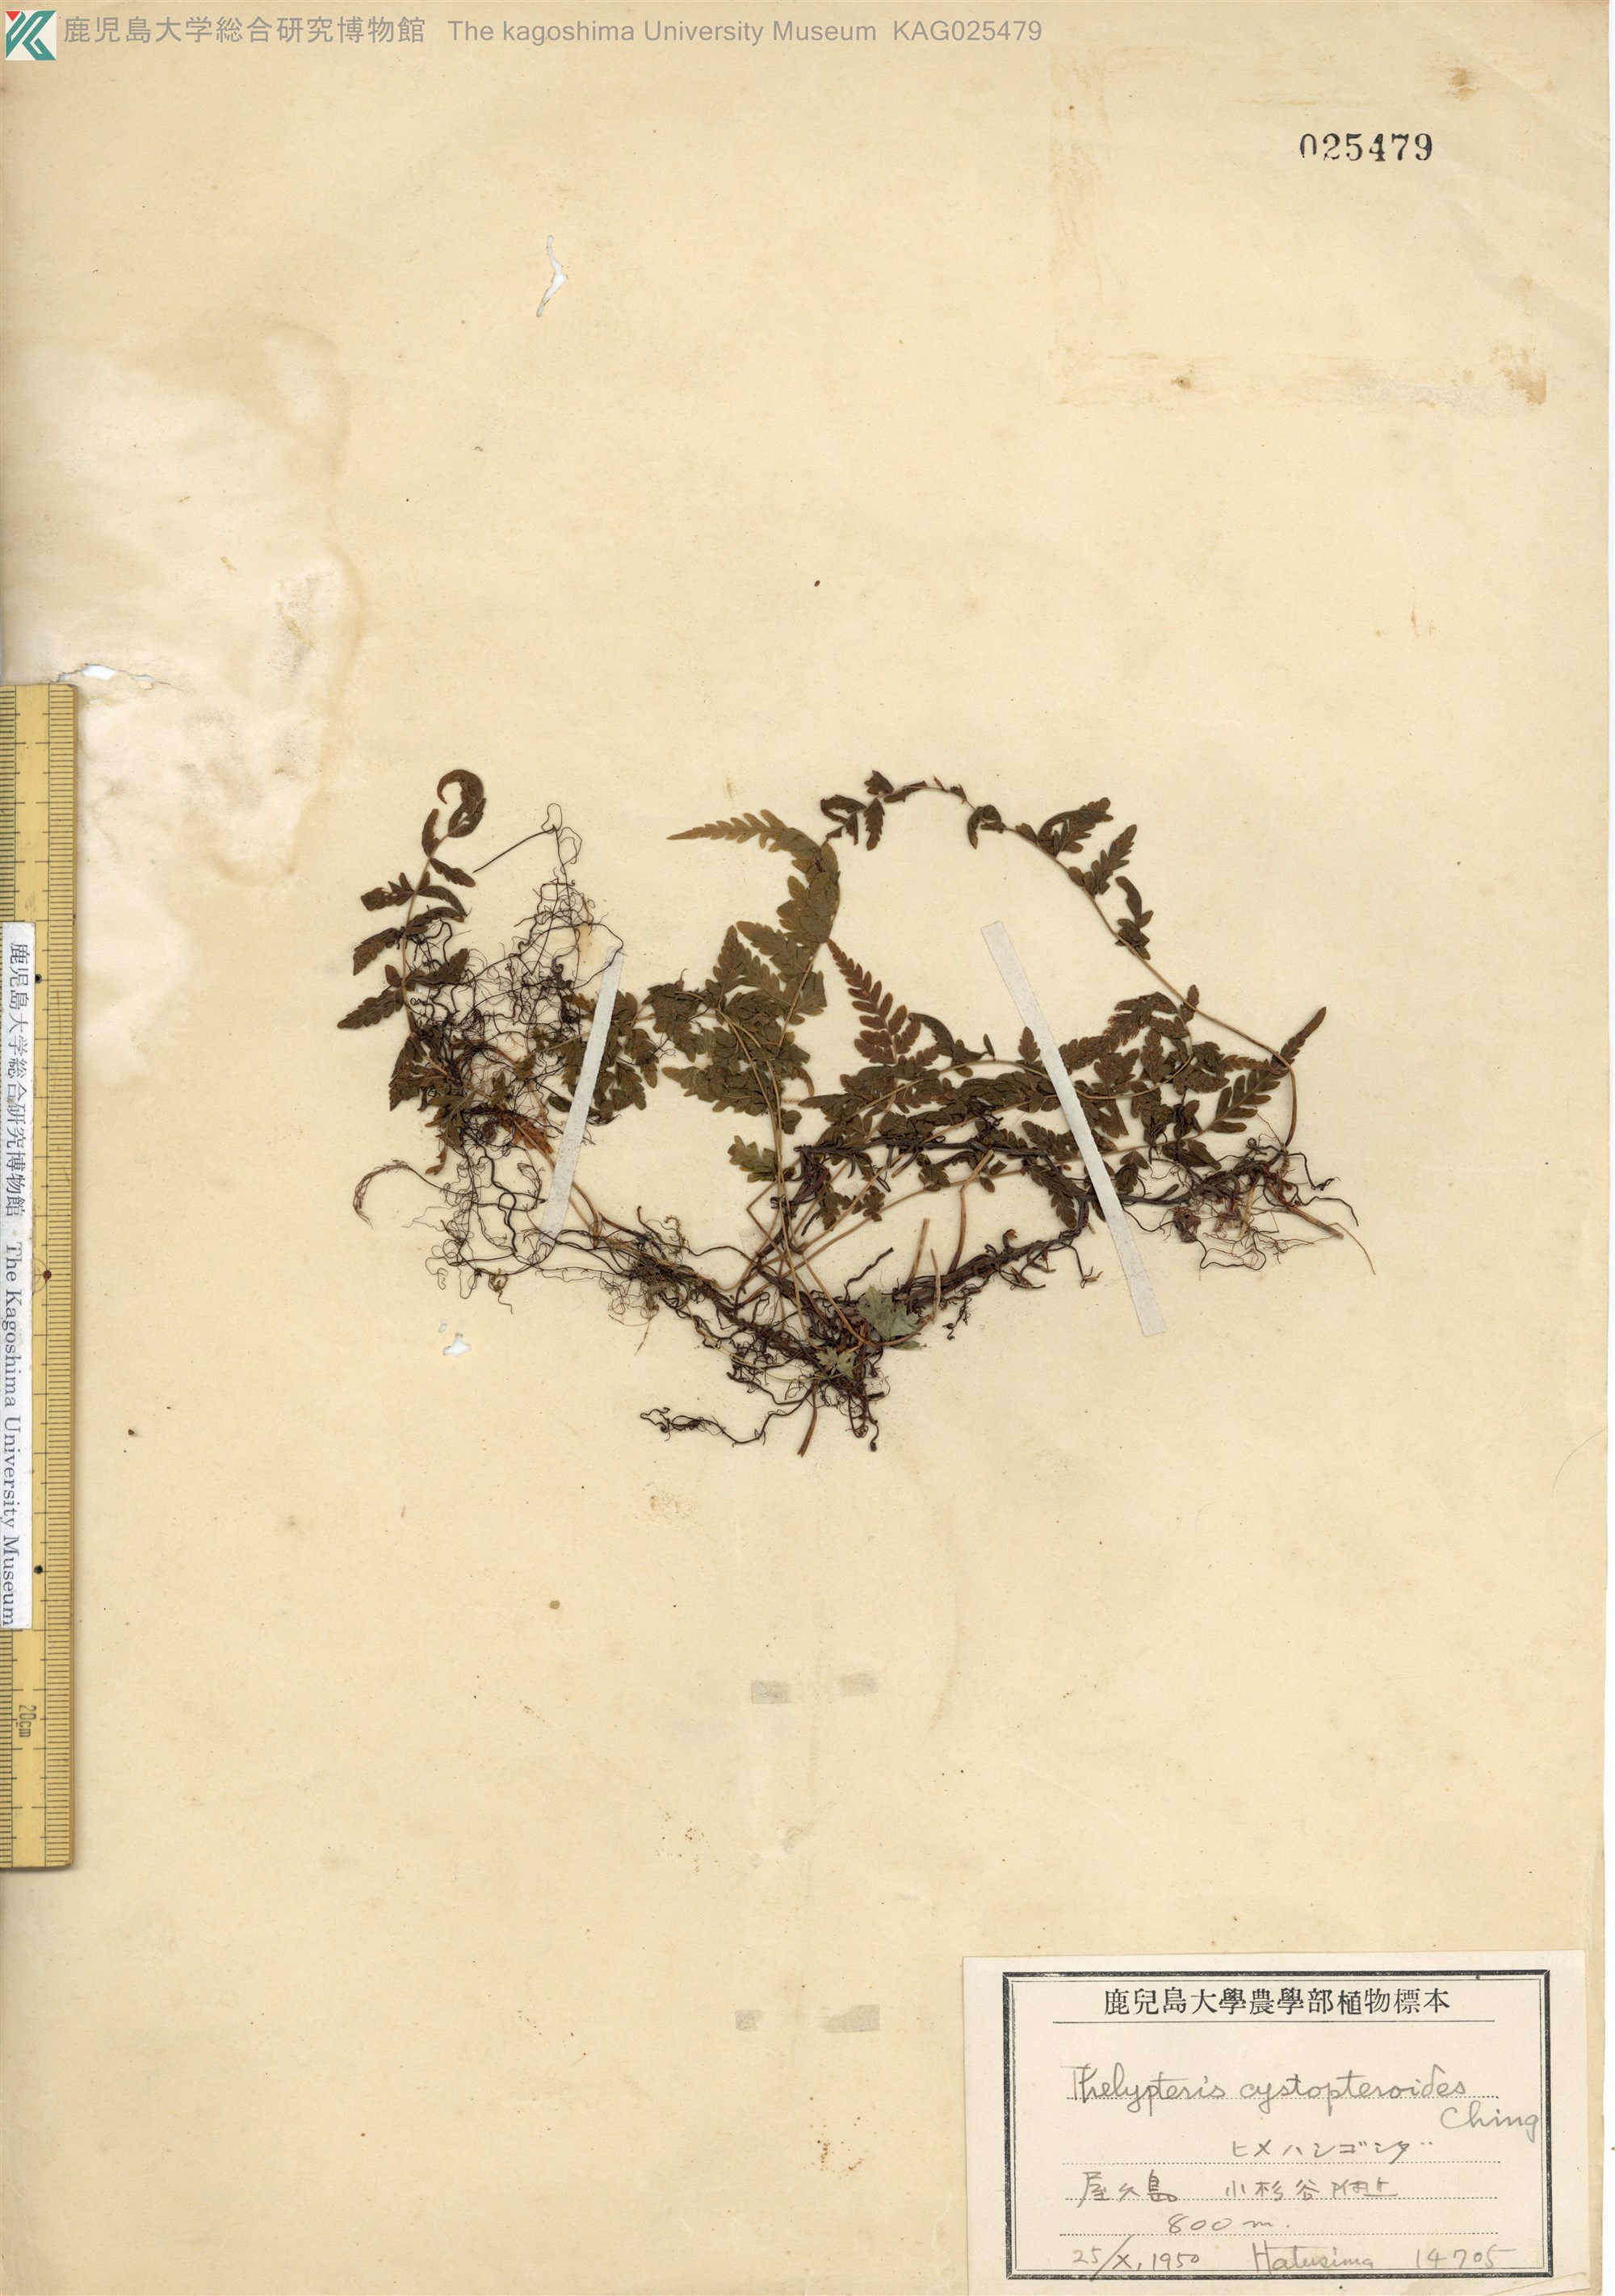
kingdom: Plantae
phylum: Tracheophyta
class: Polypodiopsida
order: Polypodiales
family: Thelypteridaceae
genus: Amauropelta
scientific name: Amauropelta cystopteroides
